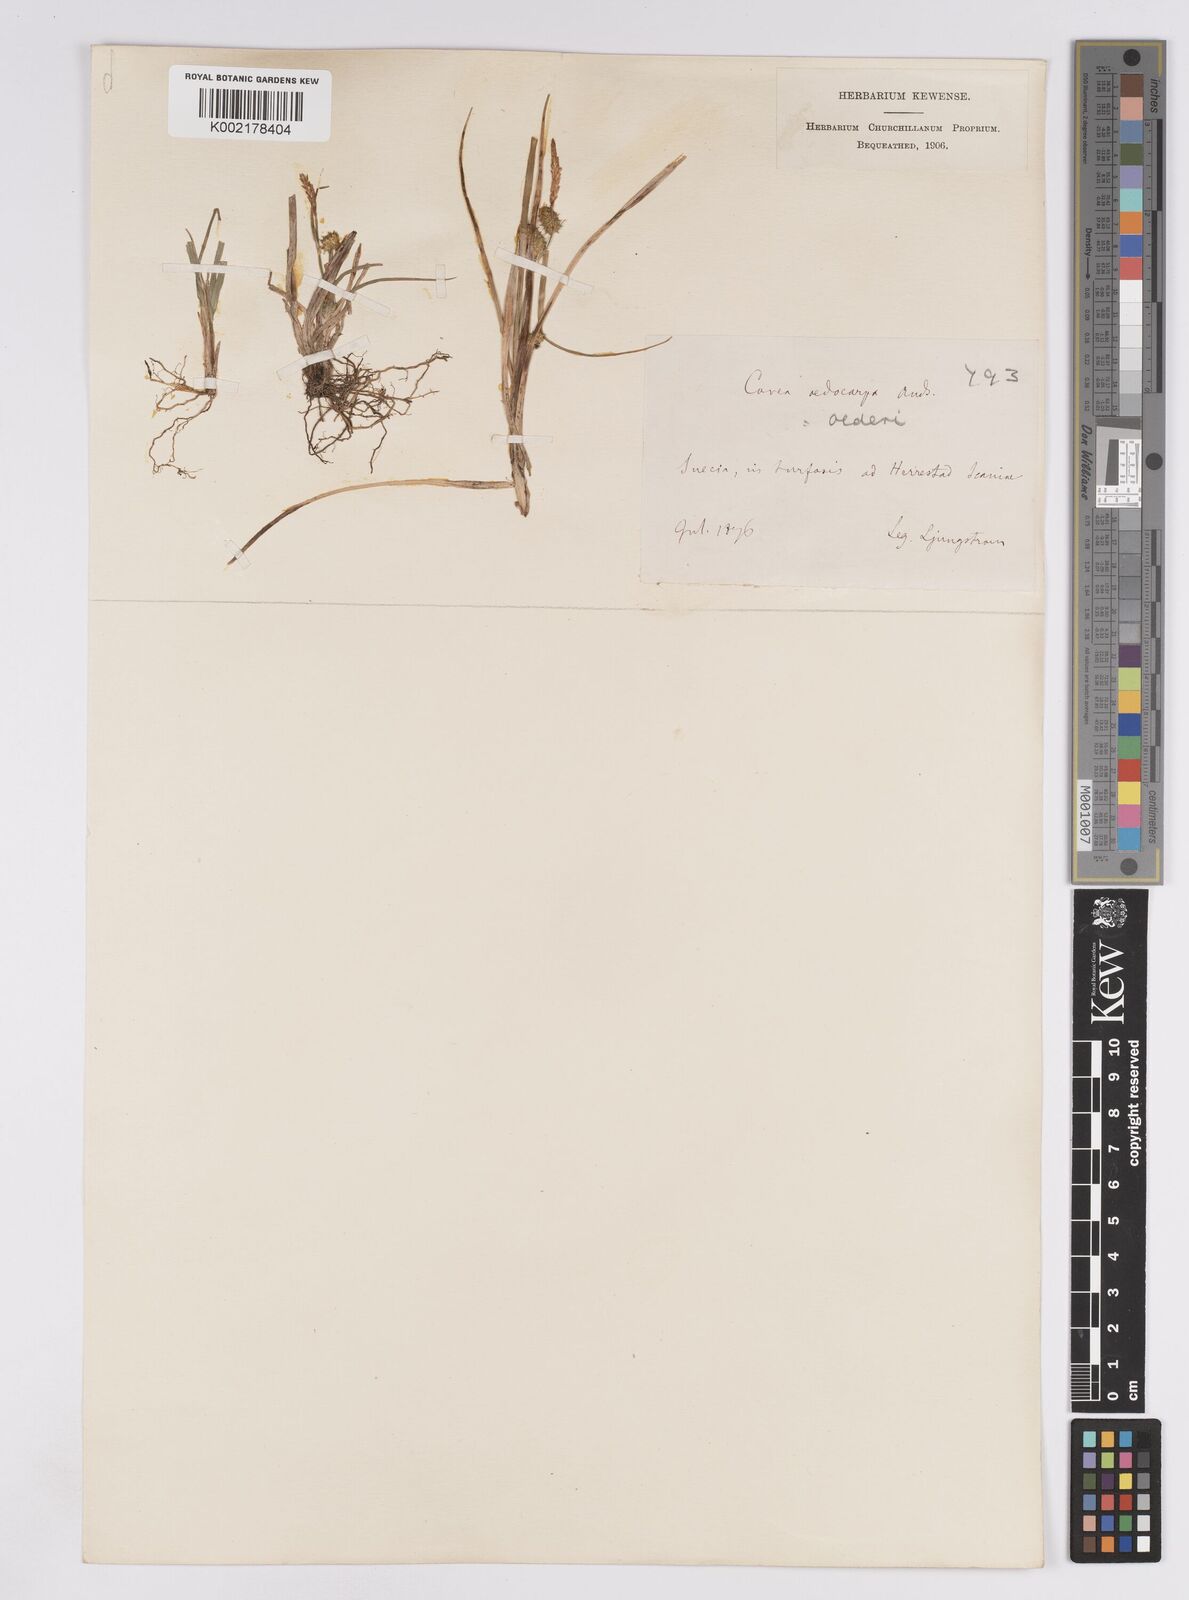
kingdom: Plantae
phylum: Tracheophyta
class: Liliopsida
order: Poales
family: Cyperaceae
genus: Carex
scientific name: Carex demissa
